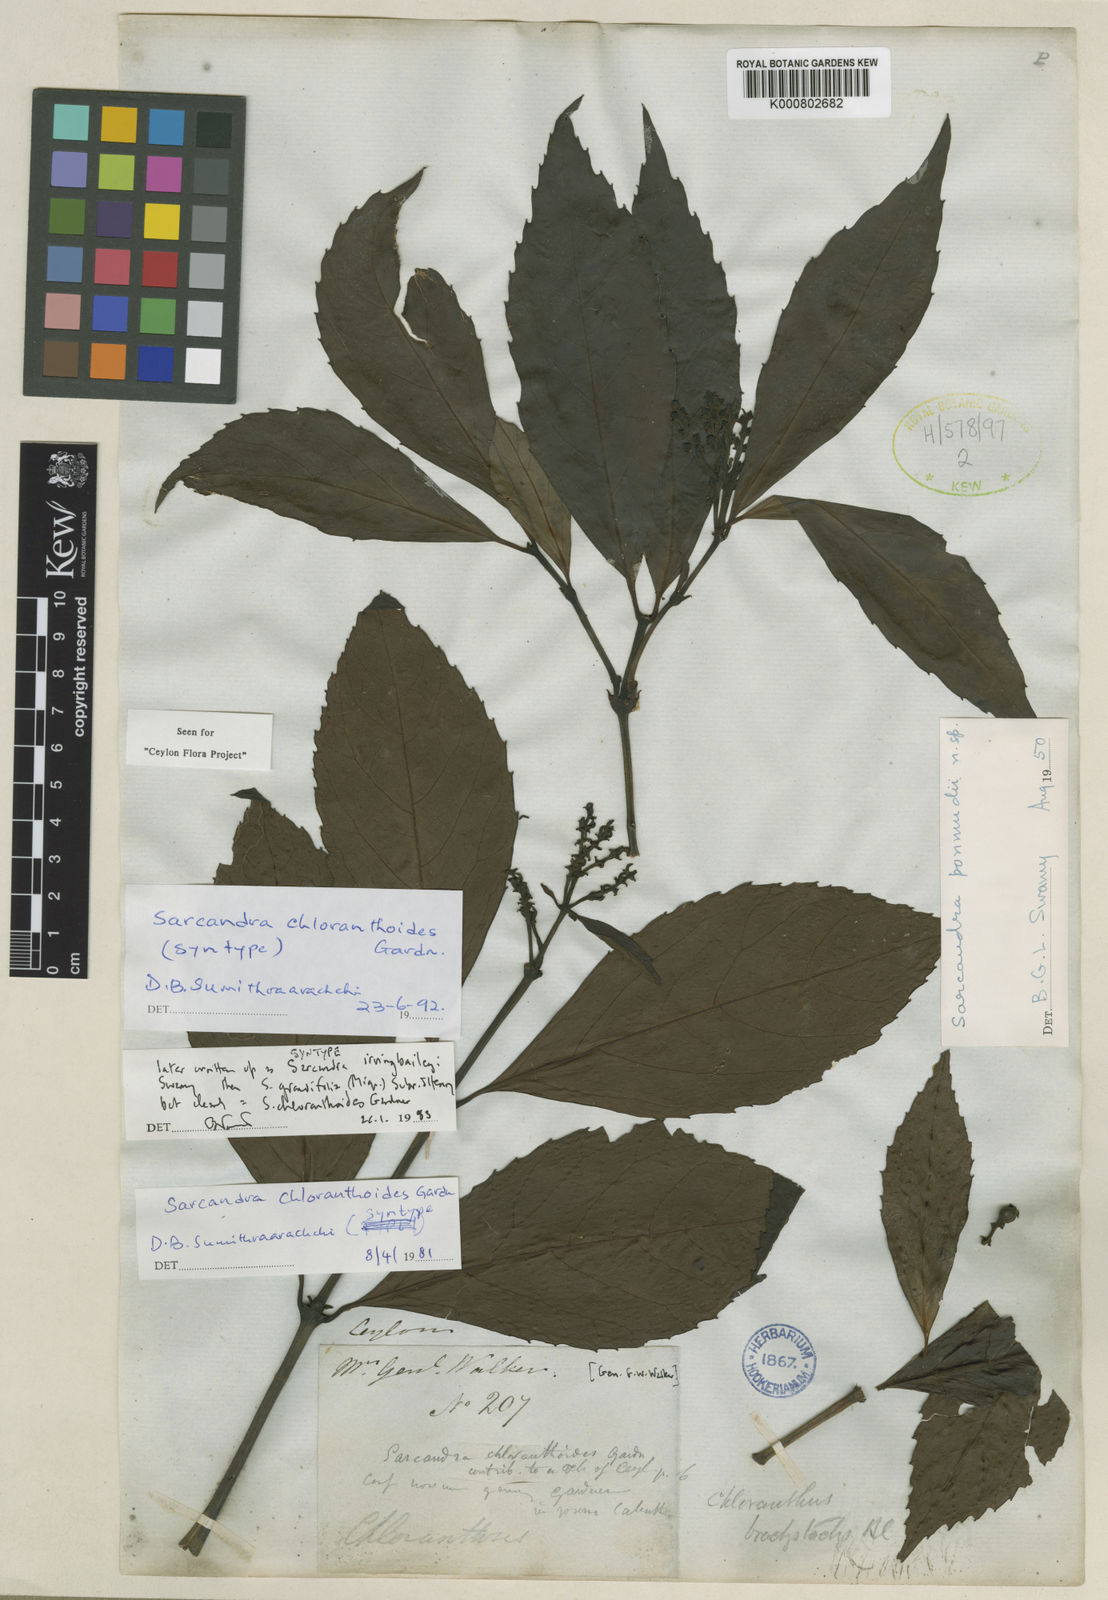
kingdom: Plantae
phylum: Tracheophyta
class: Magnoliopsida
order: Chloranthales
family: Chloranthaceae
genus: Sarcandra
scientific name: Sarcandra chloranthoides
